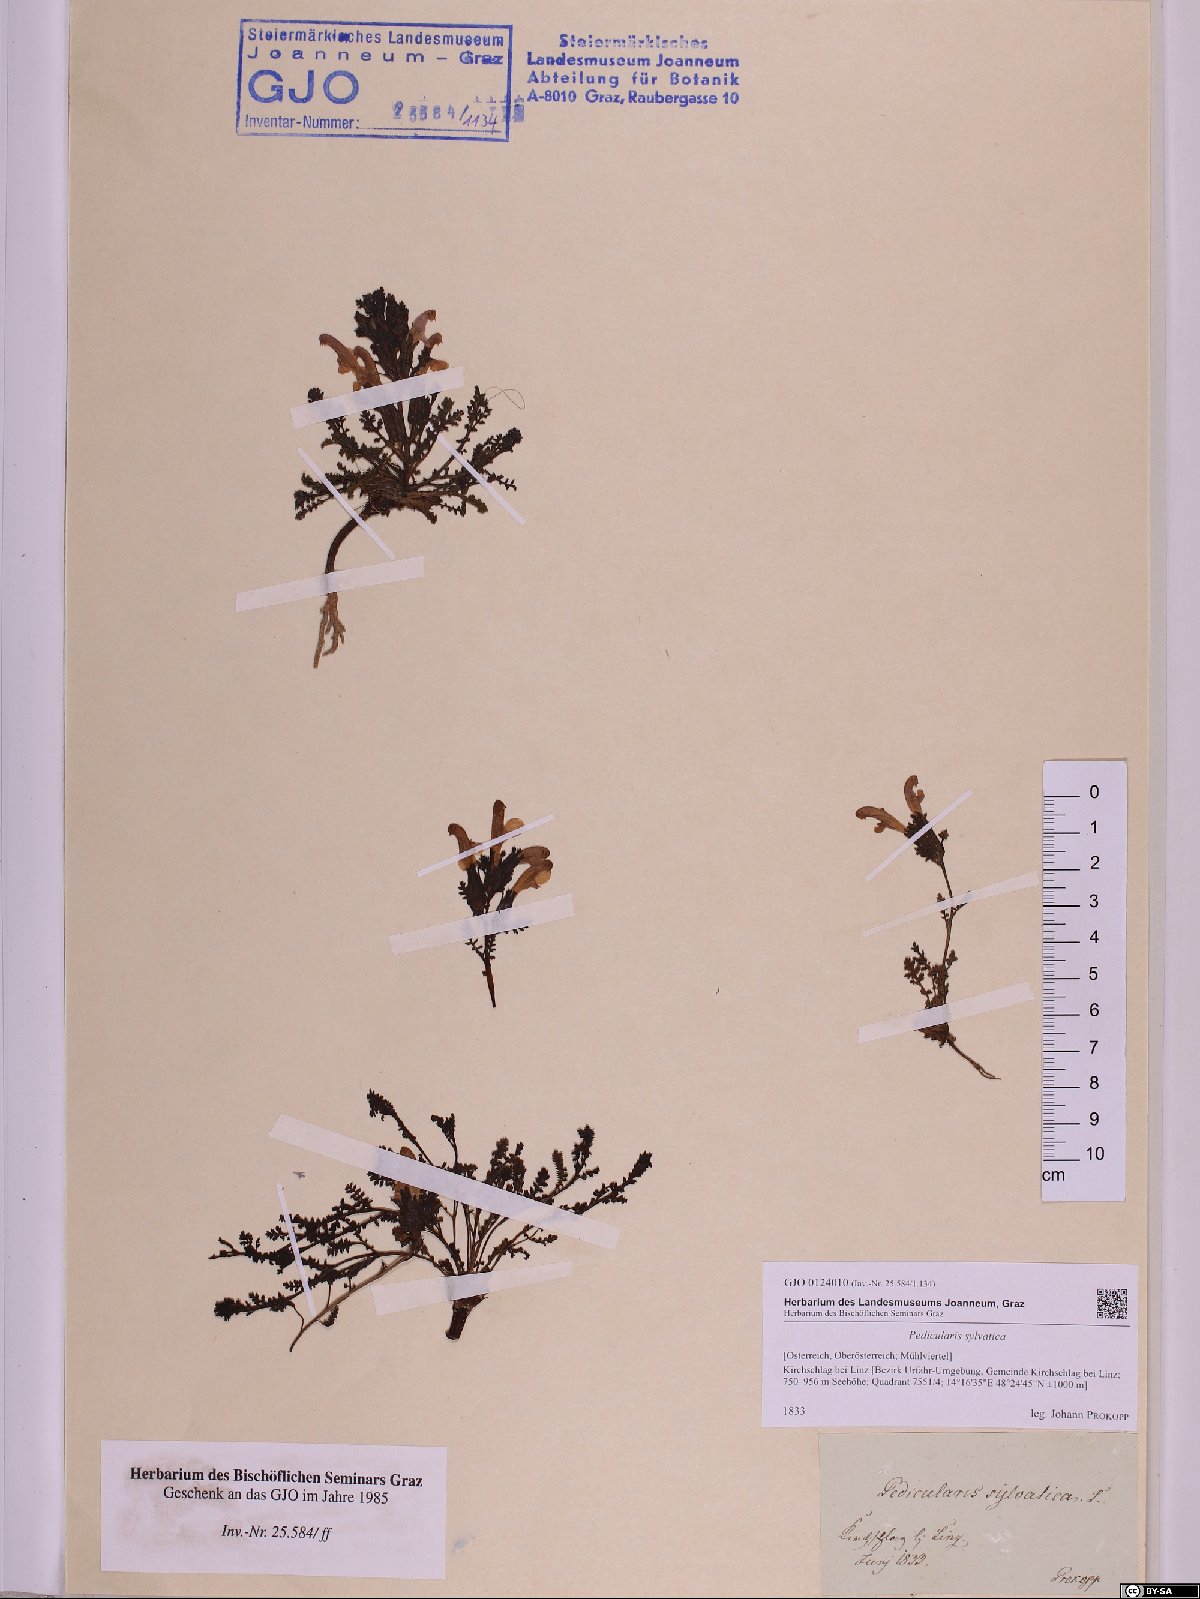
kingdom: Plantae
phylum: Tracheophyta
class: Magnoliopsida
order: Lamiales
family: Orobanchaceae
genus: Pedicularis
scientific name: Pedicularis sylvatica
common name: Lousewort
